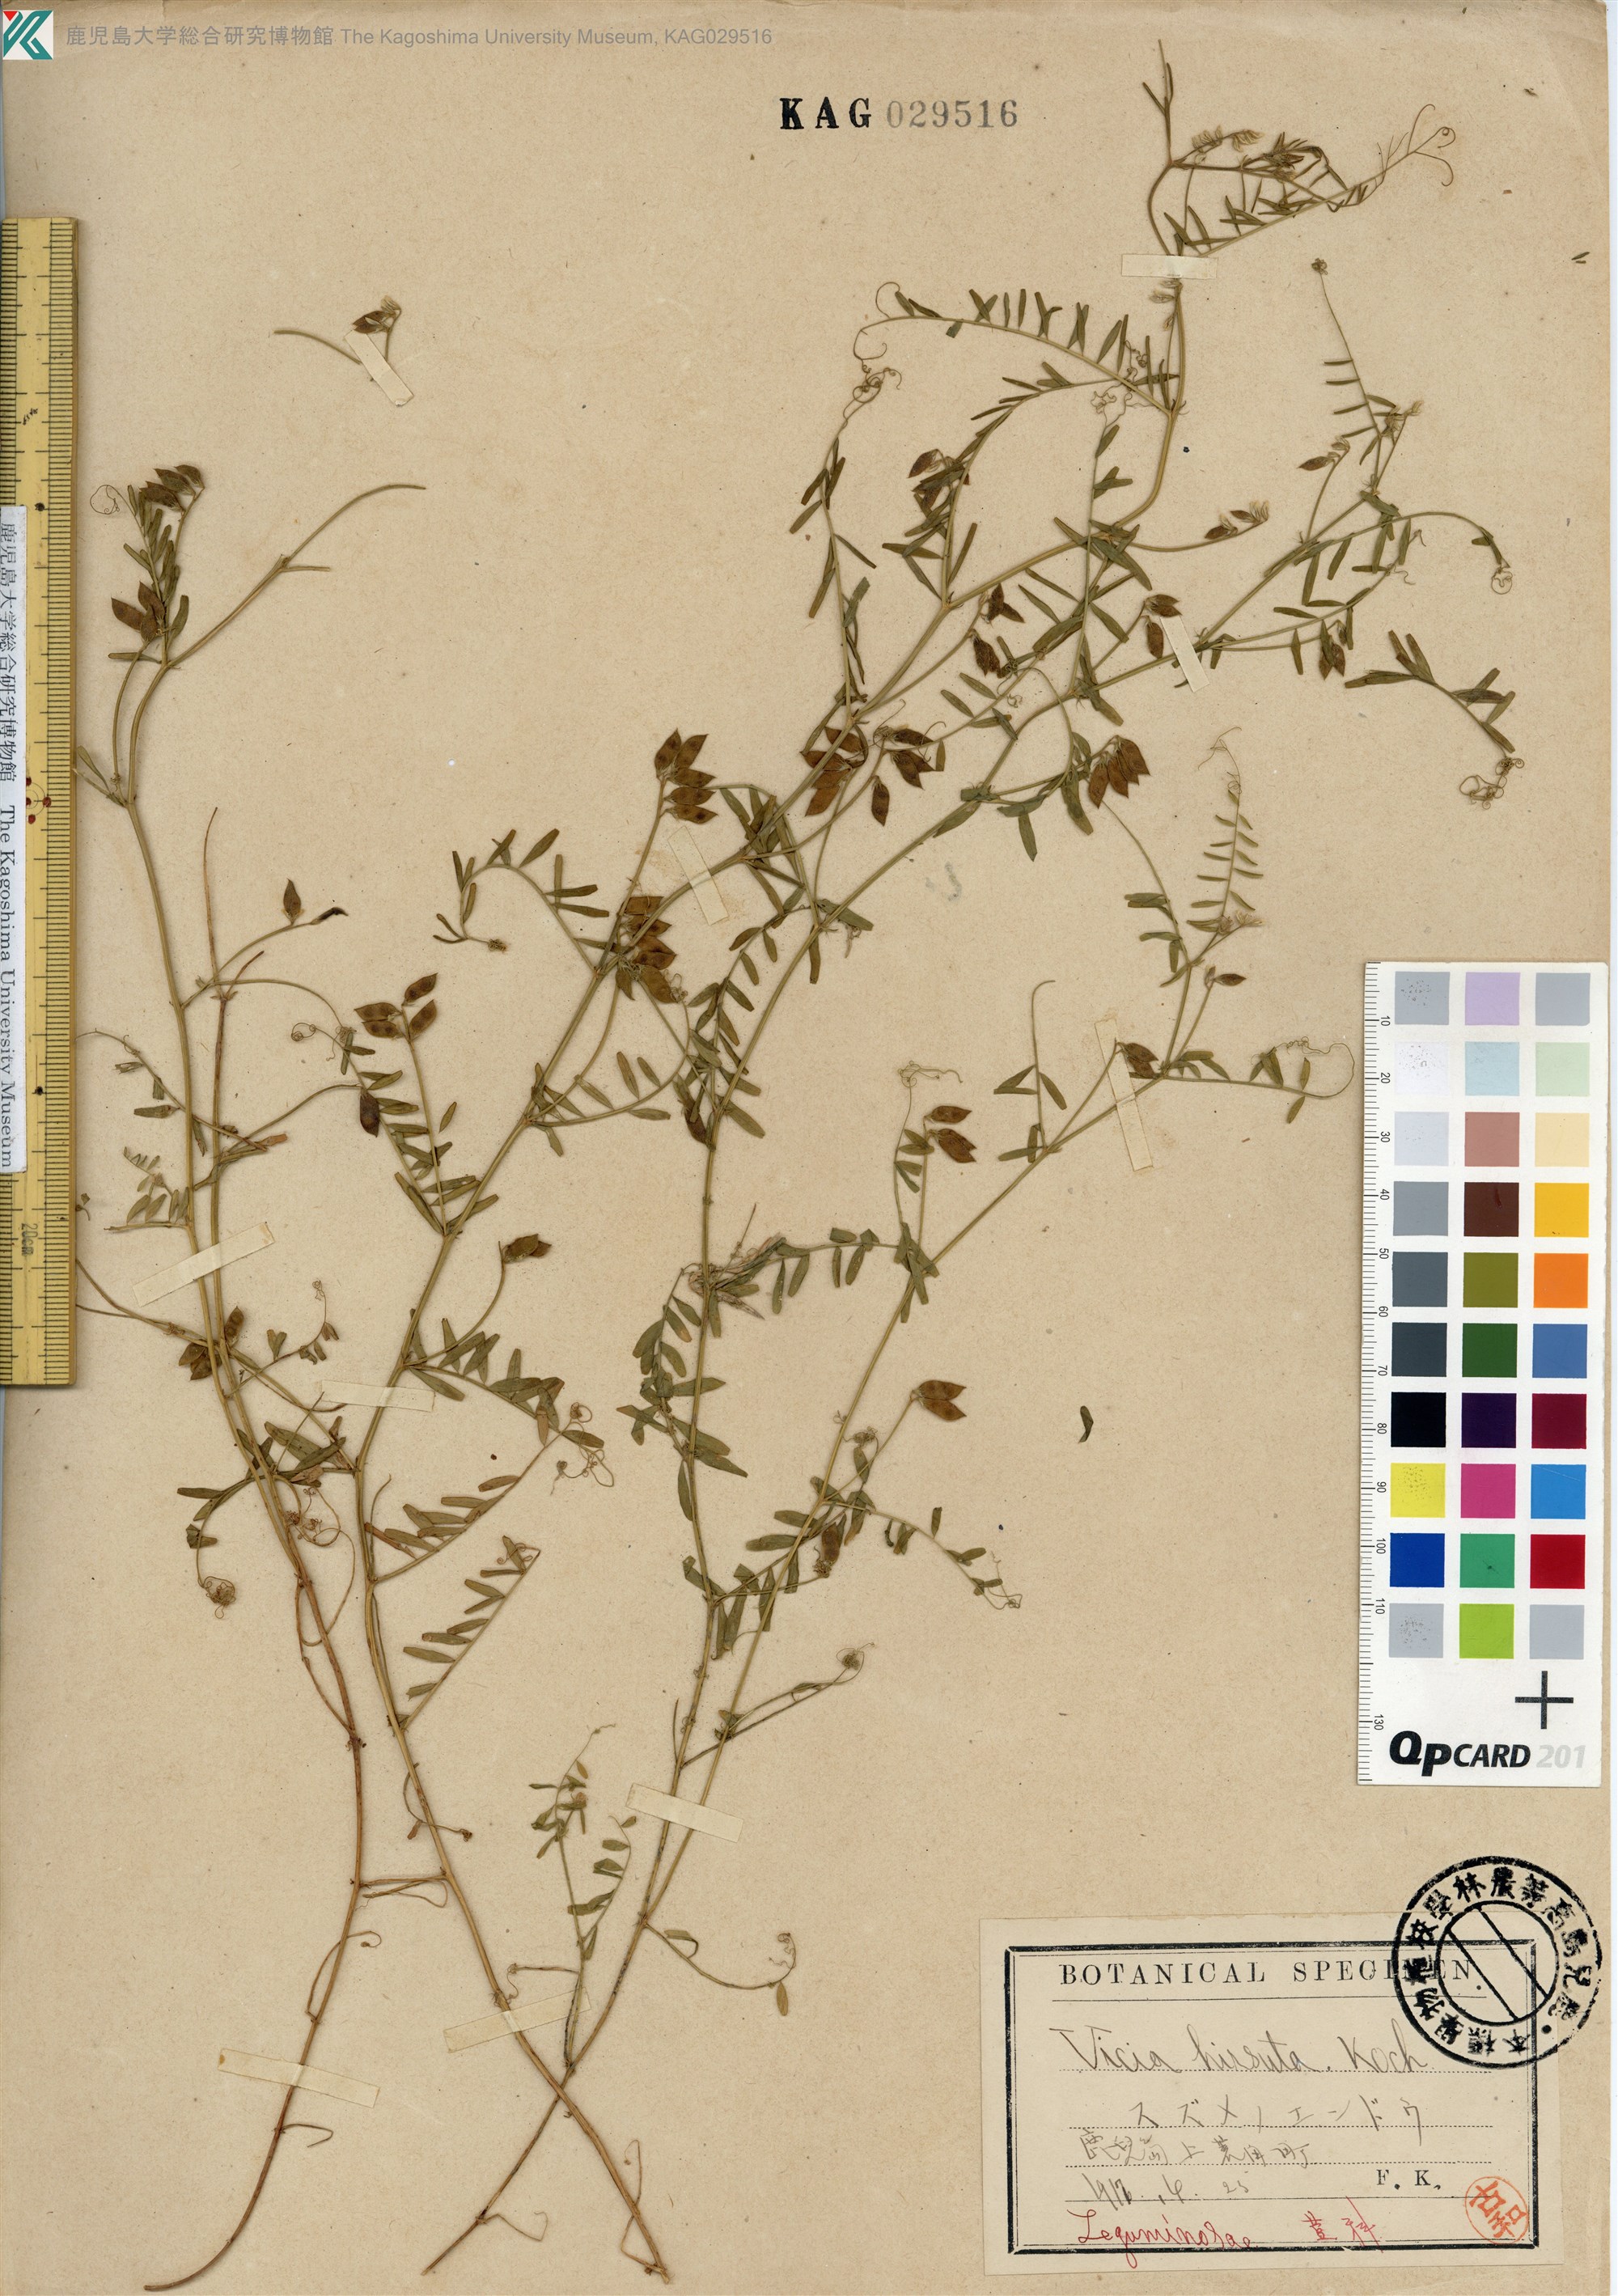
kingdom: Plantae
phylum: Tracheophyta
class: Magnoliopsida
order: Fabales
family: Fabaceae
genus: Vicia
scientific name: Vicia hirsuta
